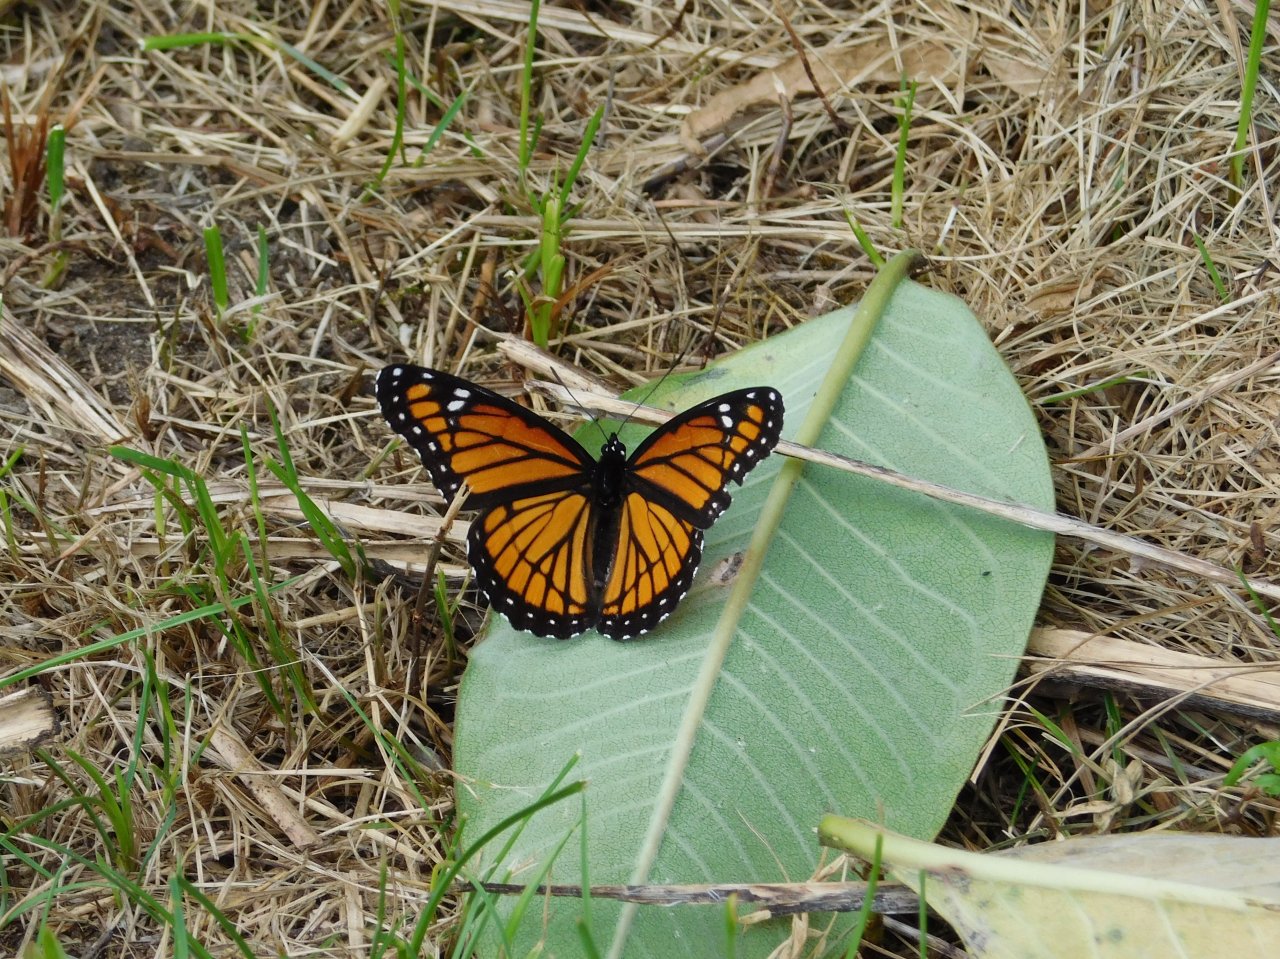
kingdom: Animalia
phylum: Arthropoda
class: Insecta
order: Lepidoptera
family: Nymphalidae
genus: Limenitis
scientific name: Limenitis archippus
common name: Viceroy
